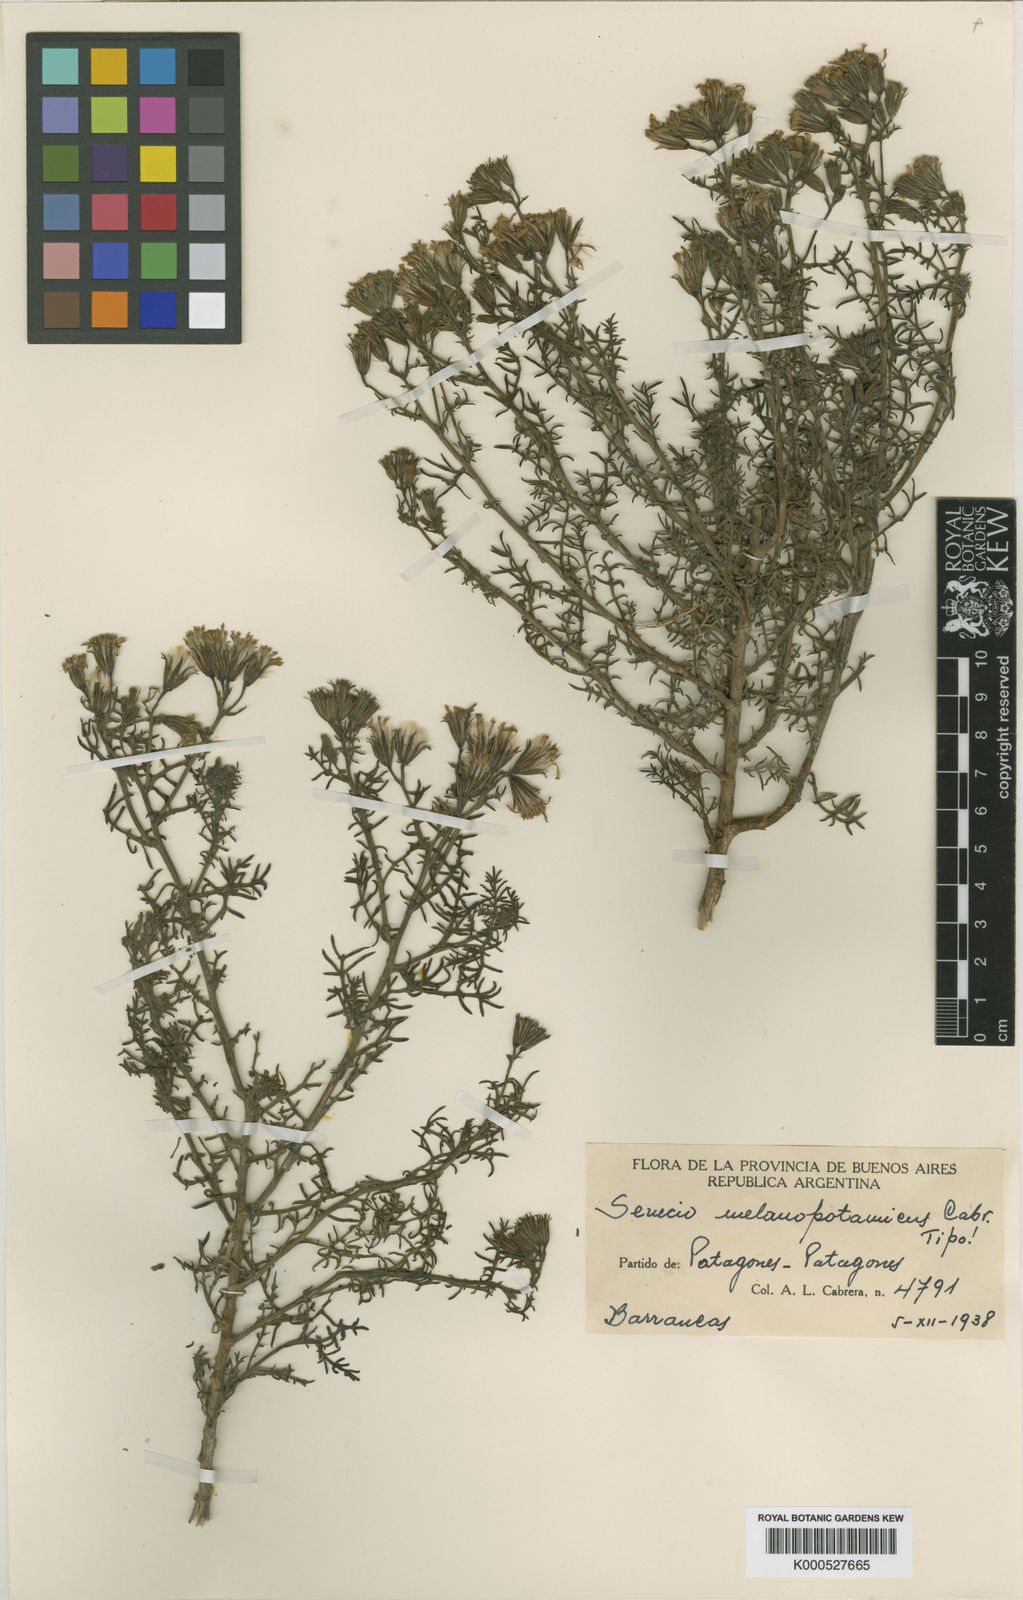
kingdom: Plantae
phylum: Tracheophyta
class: Magnoliopsida
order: Asterales
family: Asteraceae
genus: Senecio
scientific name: Senecio melanopotamicus
